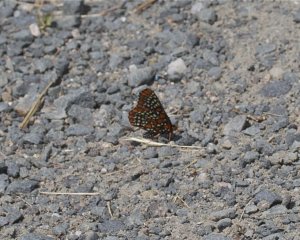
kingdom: Animalia
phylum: Arthropoda
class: Insecta
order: Lepidoptera
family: Nymphalidae
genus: Euphydryas
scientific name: Euphydryas phaeton
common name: Baltimore Checkerspot
